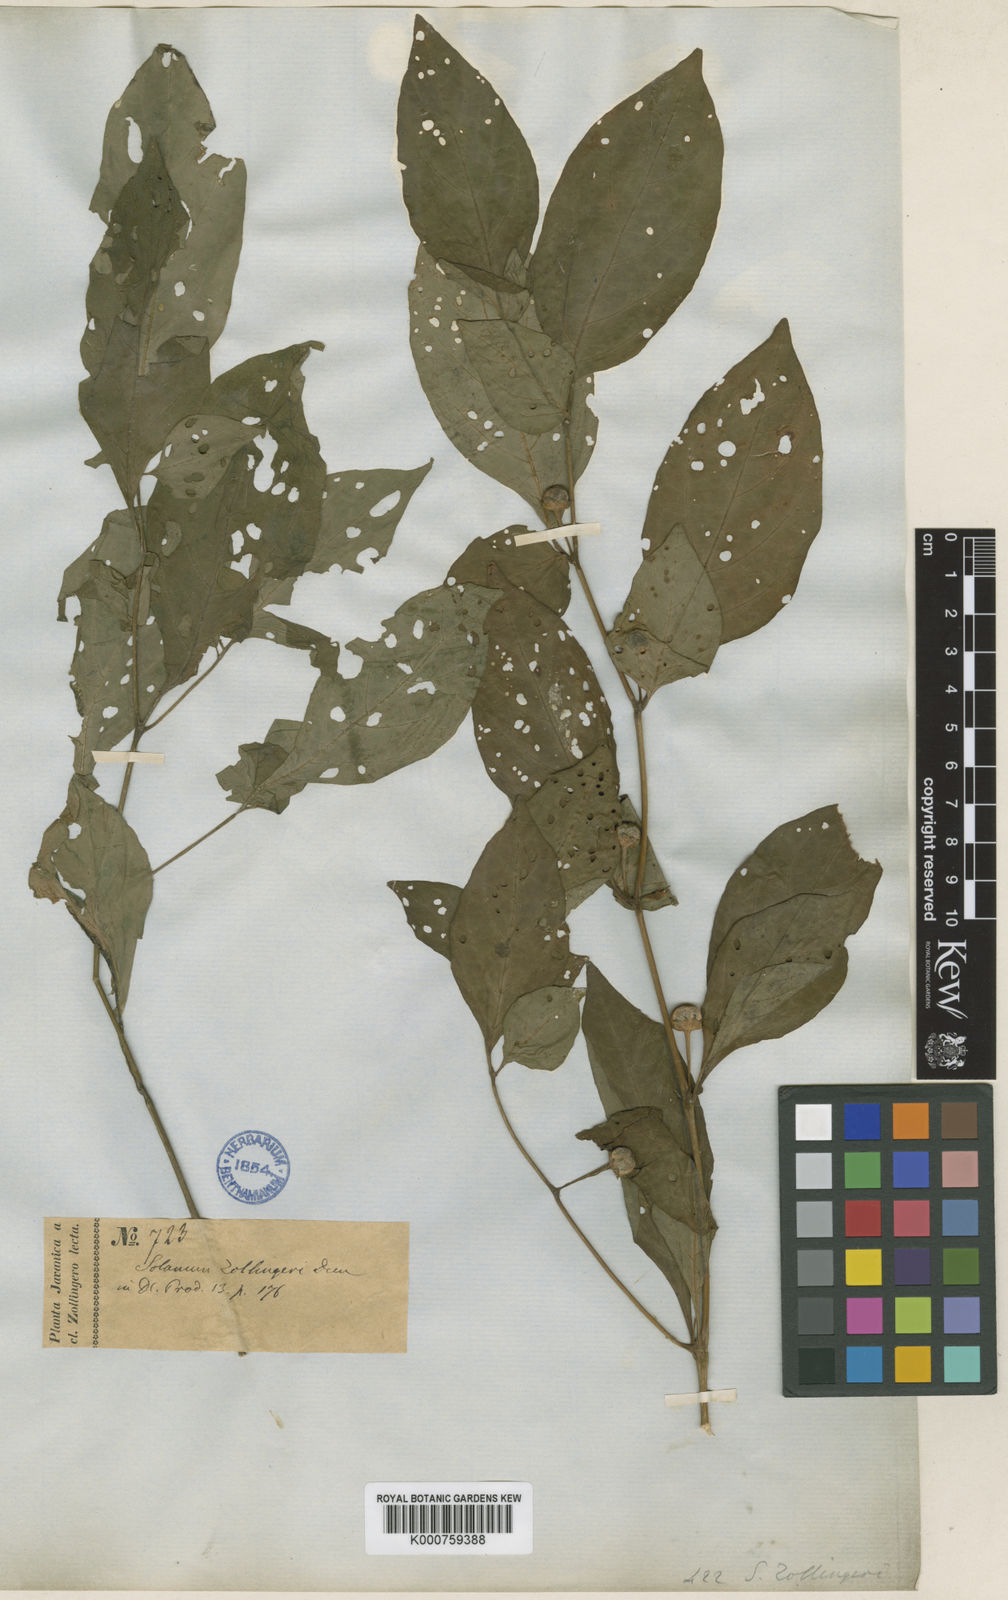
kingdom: Plantae
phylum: Tracheophyta
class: Magnoliopsida
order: Solanales
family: Solanaceae
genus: Lycianthes
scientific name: Lycianthes
